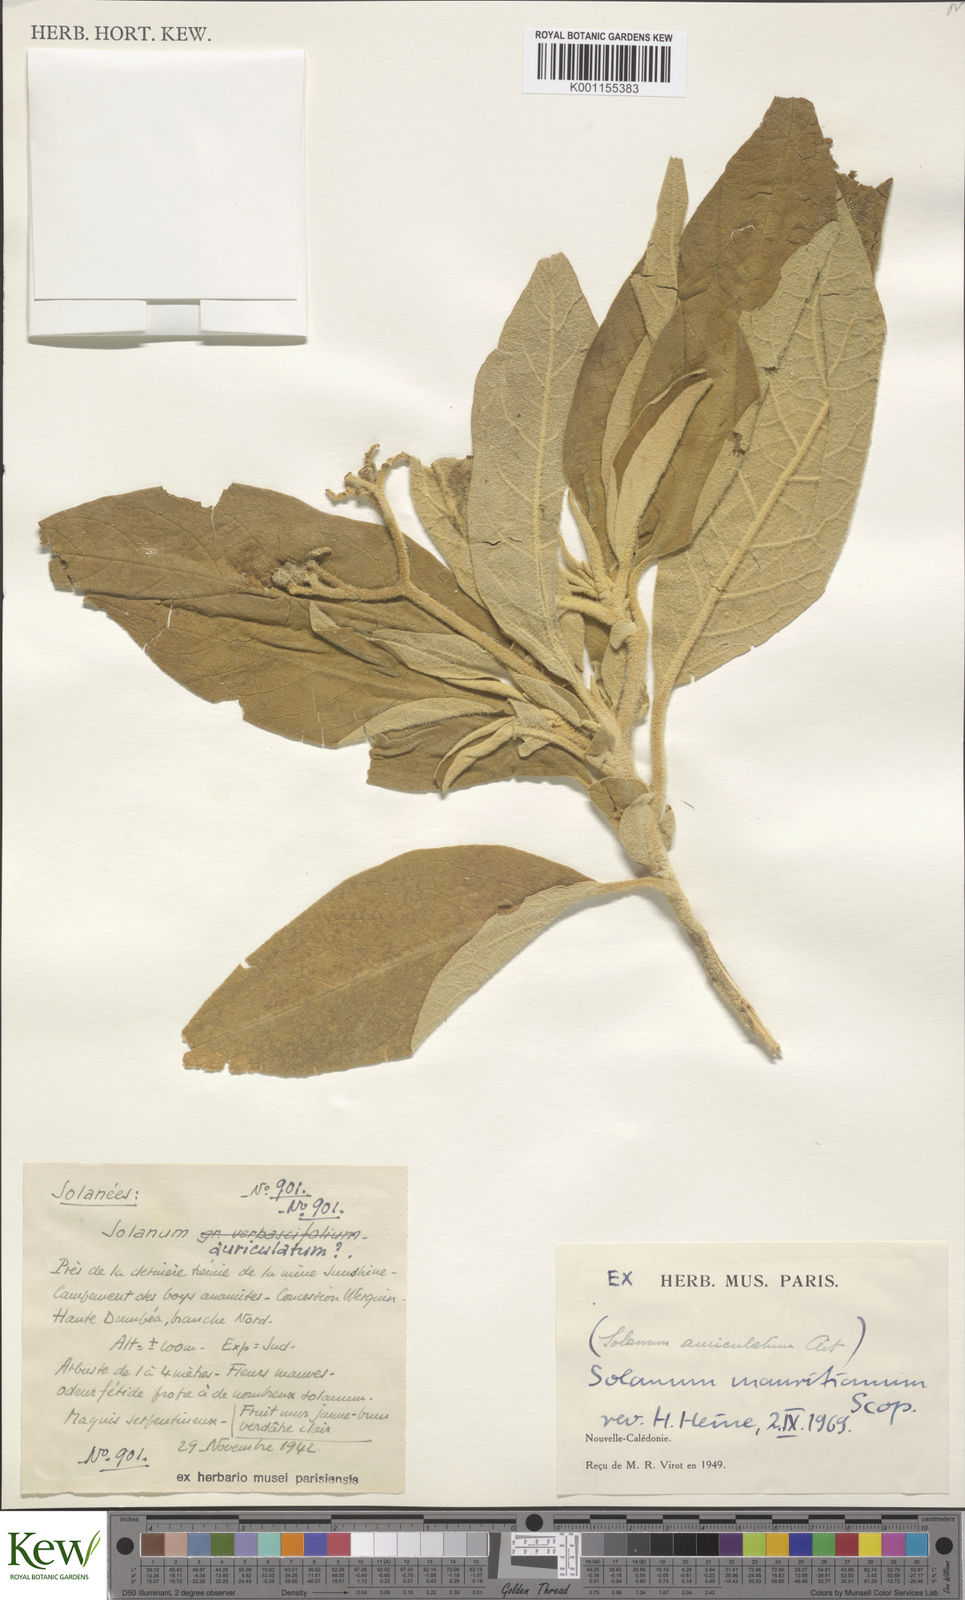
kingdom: Plantae
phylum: Tracheophyta
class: Magnoliopsida
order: Solanales
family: Solanaceae
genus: Solanum
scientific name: Solanum mauritianum
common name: Earleaf nightshade
